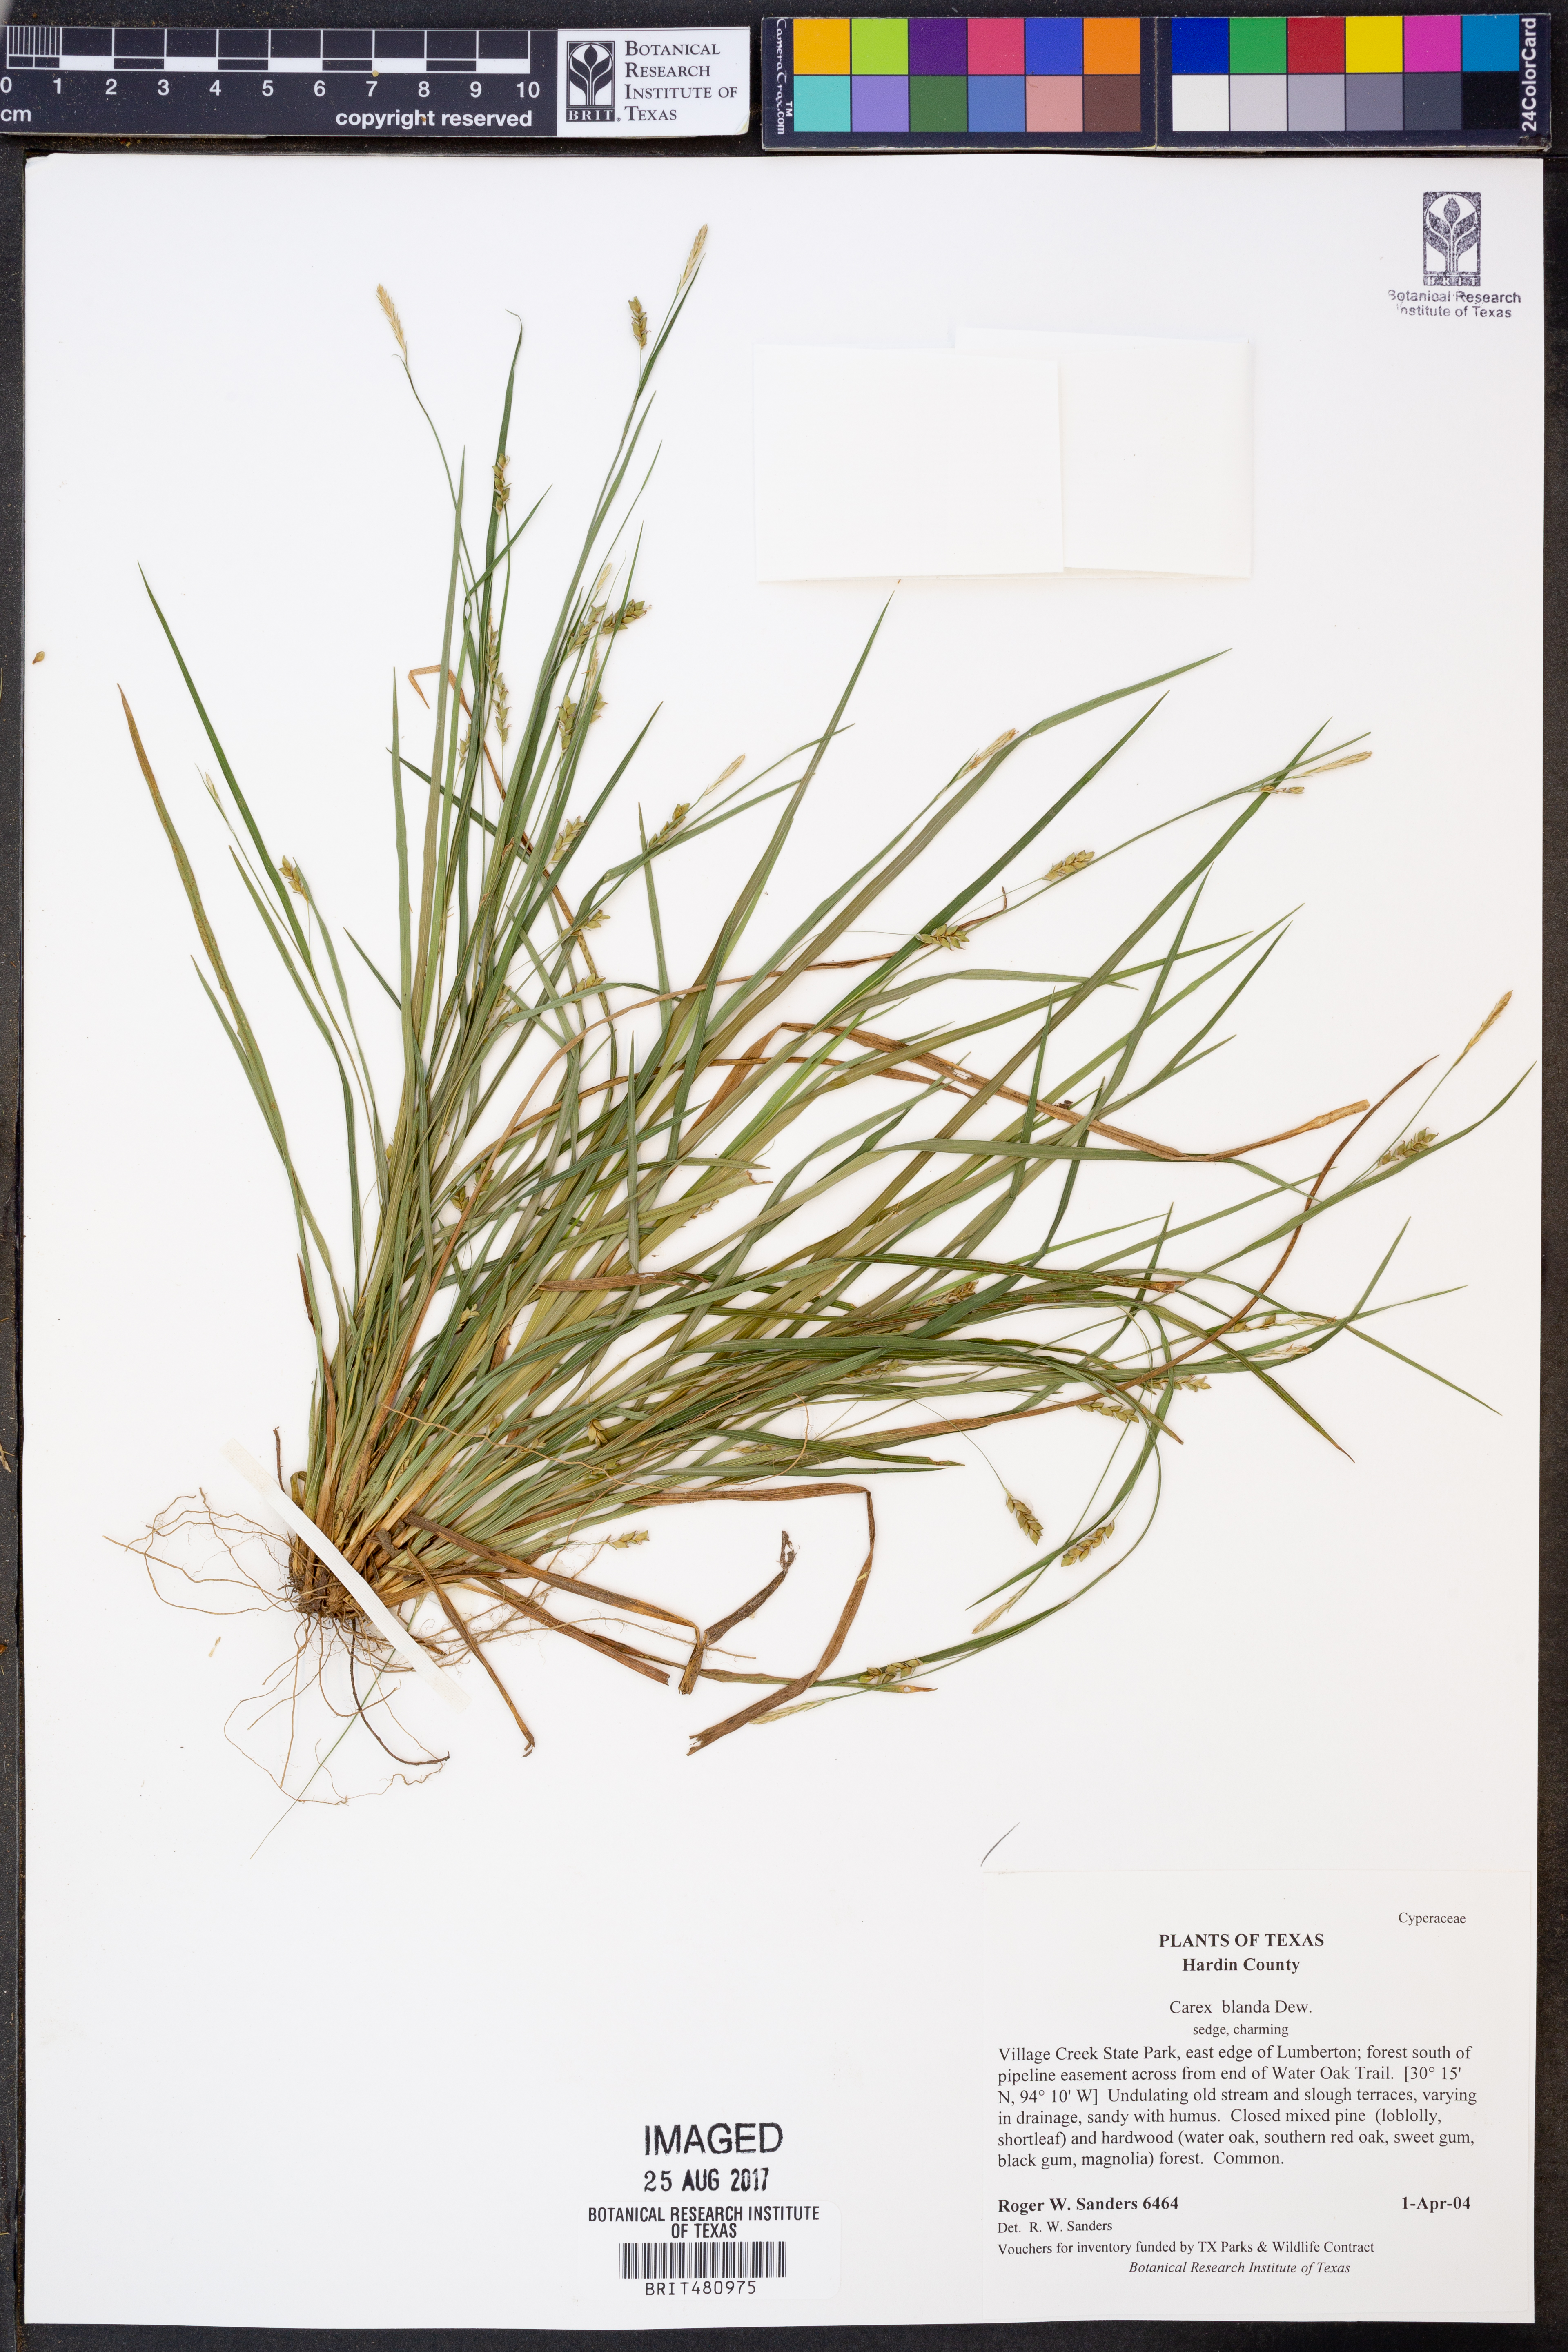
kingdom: Plantae
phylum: Tracheophyta
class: Liliopsida
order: Poales
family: Cyperaceae
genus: Carex
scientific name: Carex blanda
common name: Bland sedge
